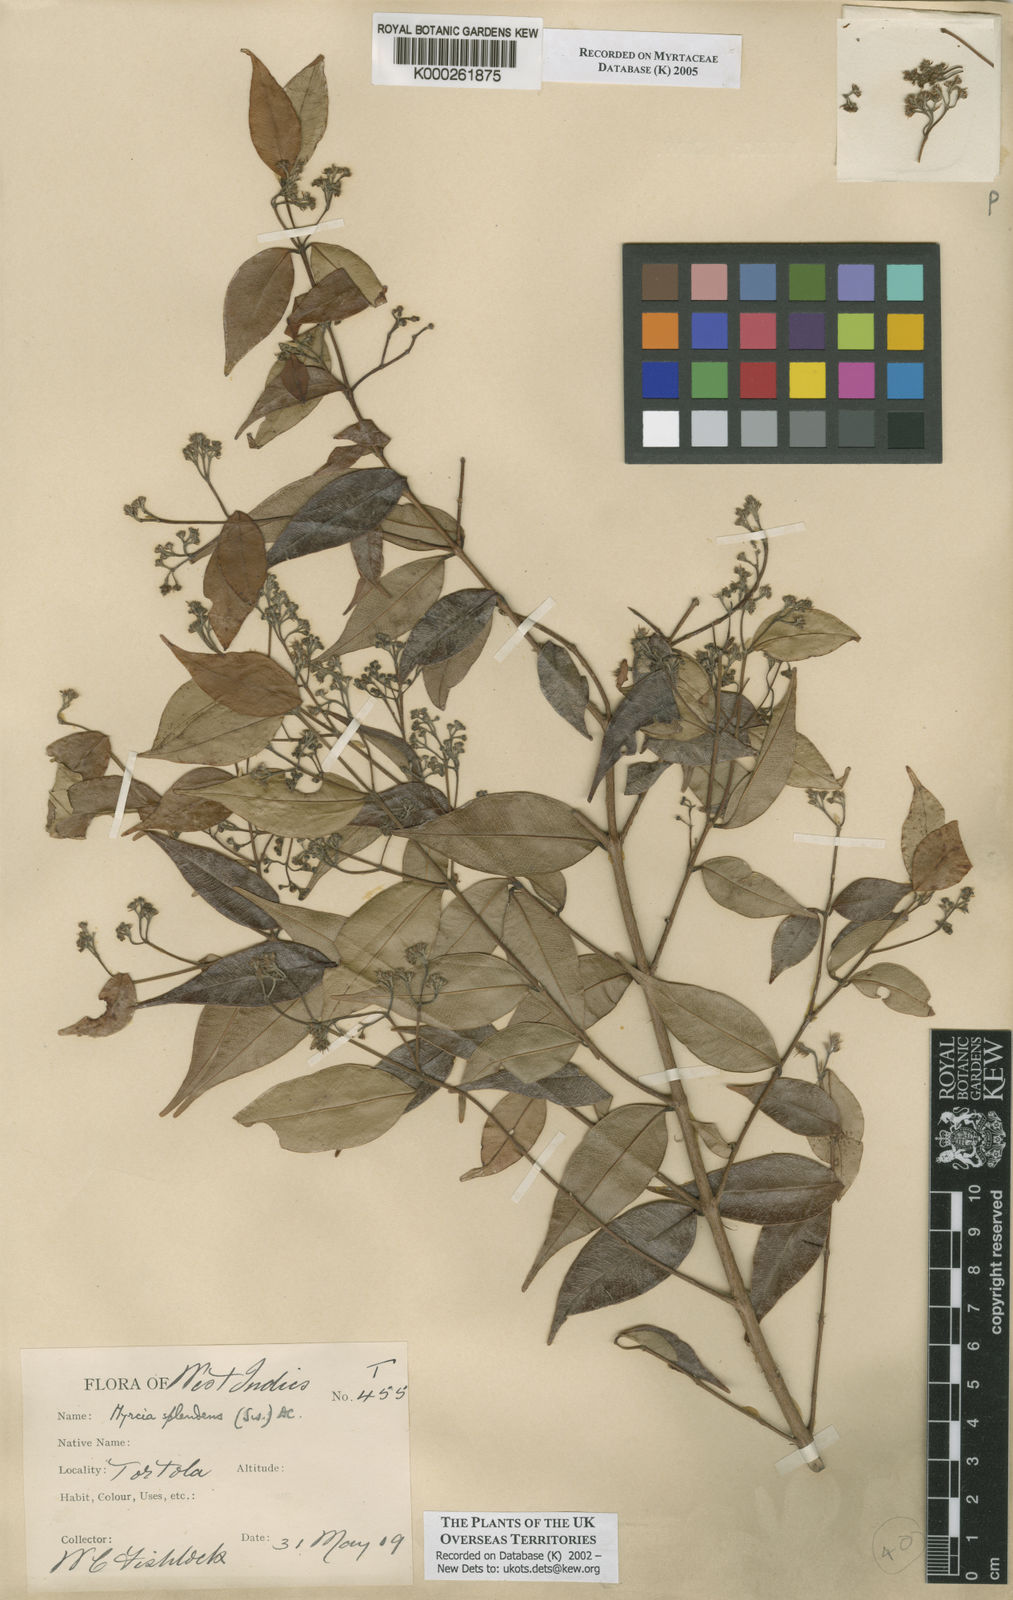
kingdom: Plantae
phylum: Tracheophyta
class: Magnoliopsida
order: Myrtales
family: Myrtaceae
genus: Myrcia
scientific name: Myrcia splendens
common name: Surinam cherry
